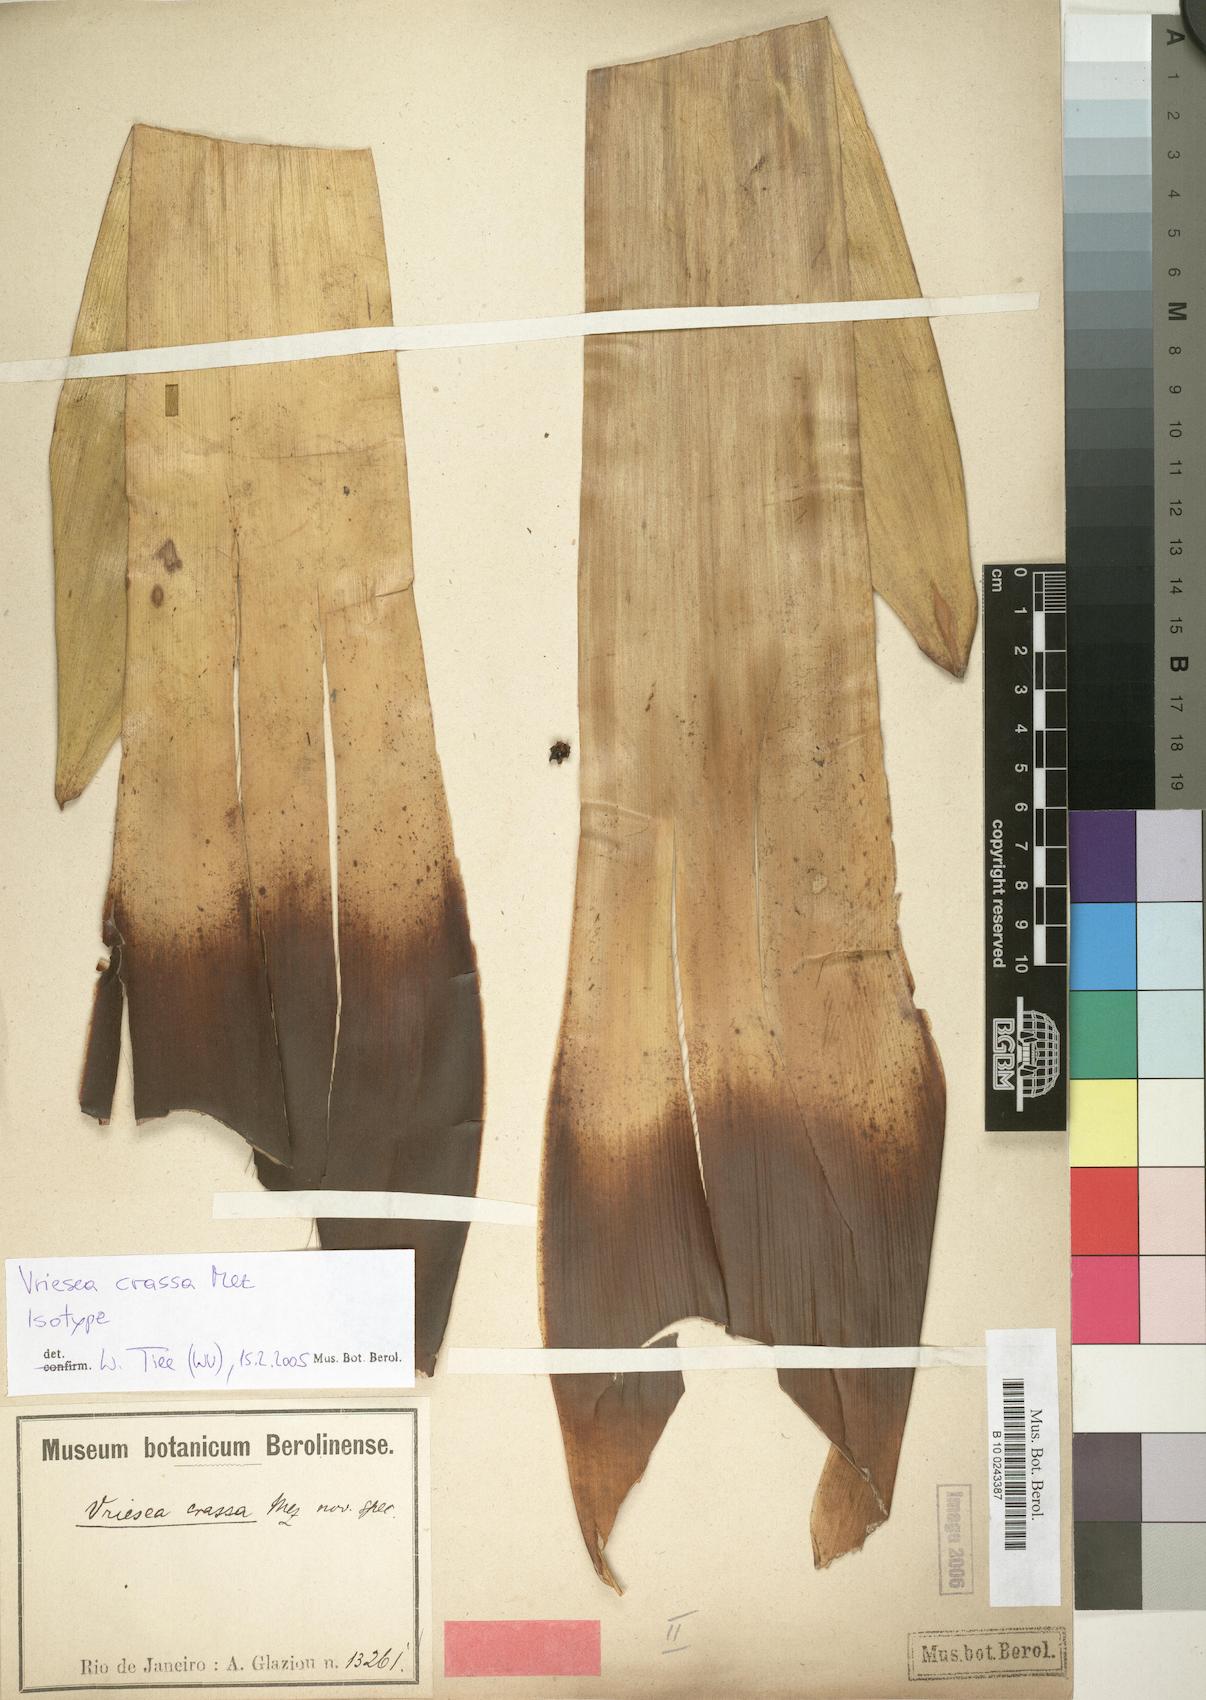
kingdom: Plantae
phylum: Tracheophyta
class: Liliopsida
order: Poales
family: Bromeliaceae
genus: Vriesea
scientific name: Vriesea crassa
